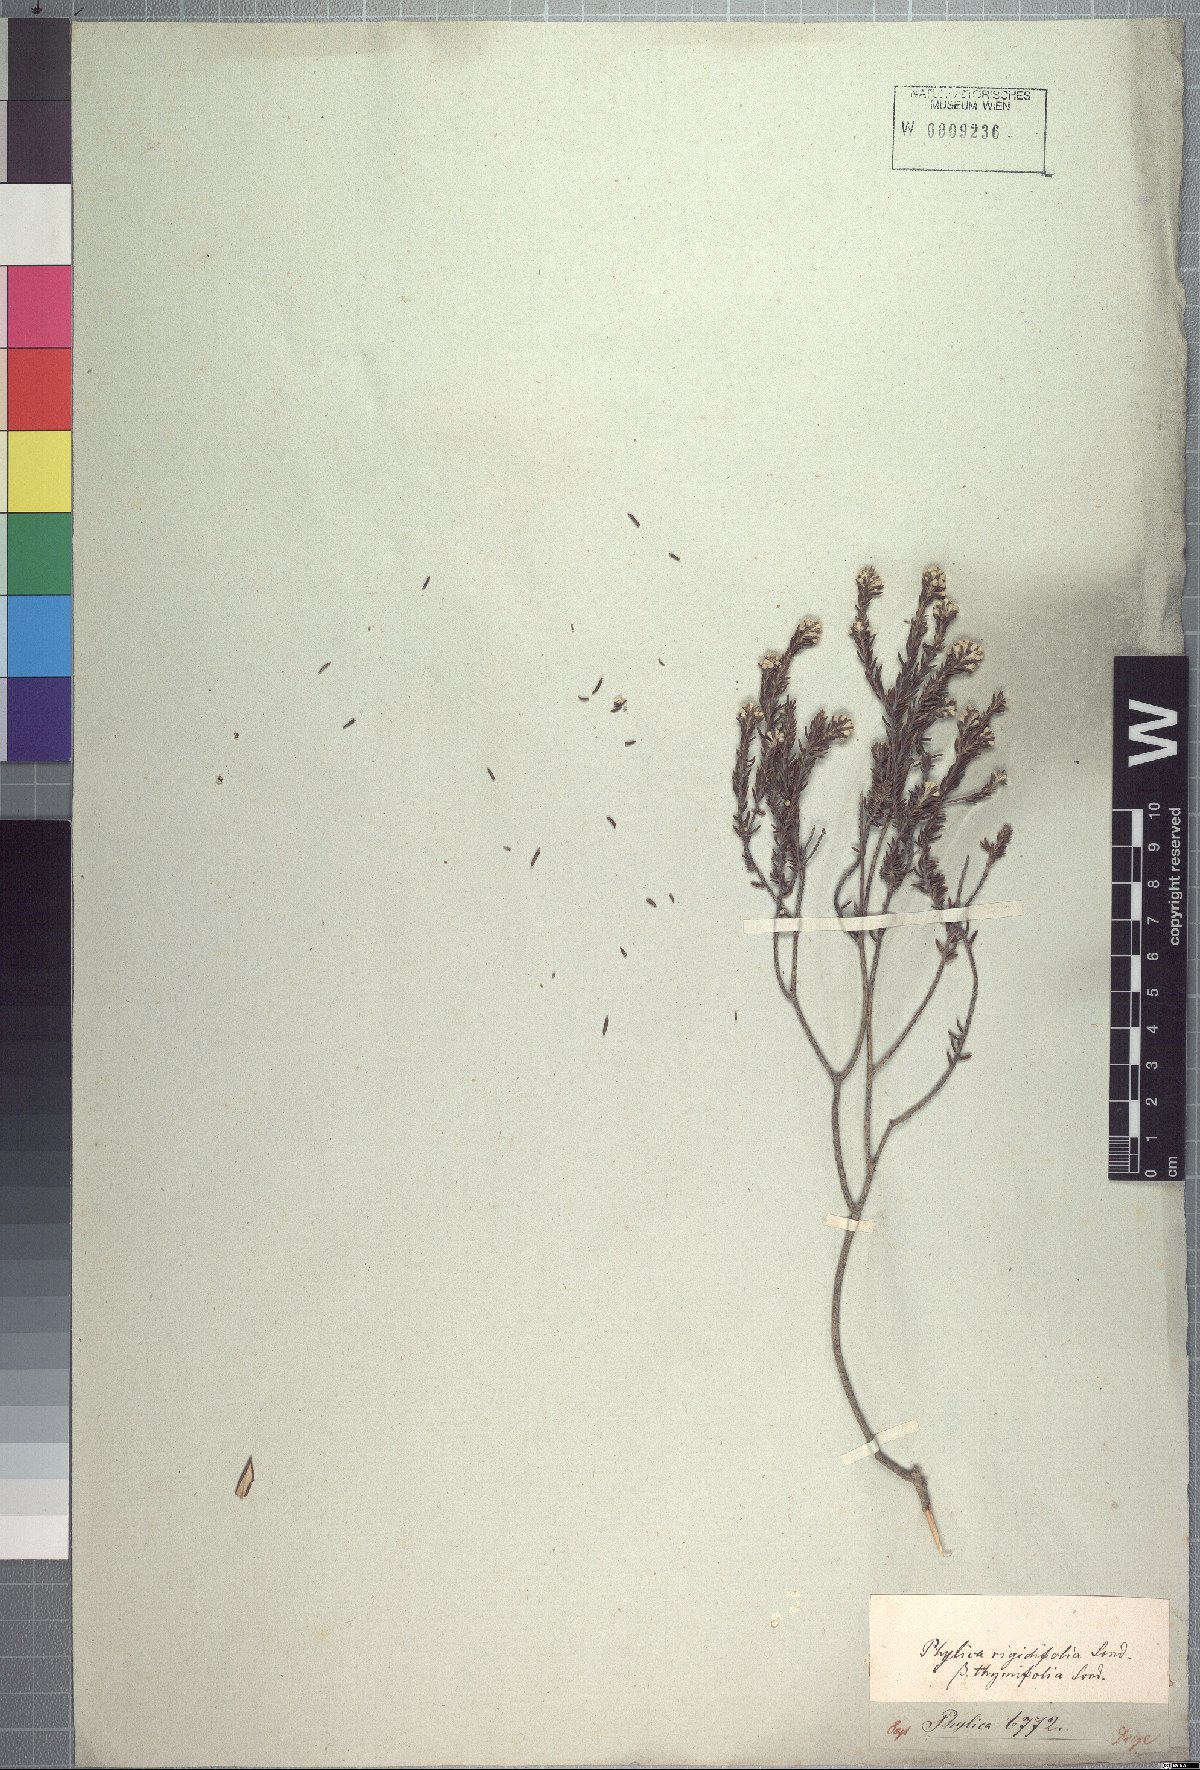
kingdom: Plantae
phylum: Tracheophyta
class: Magnoliopsida
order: Rosales
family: Rhamnaceae
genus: Phylica
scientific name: Phylica rigidifolia
